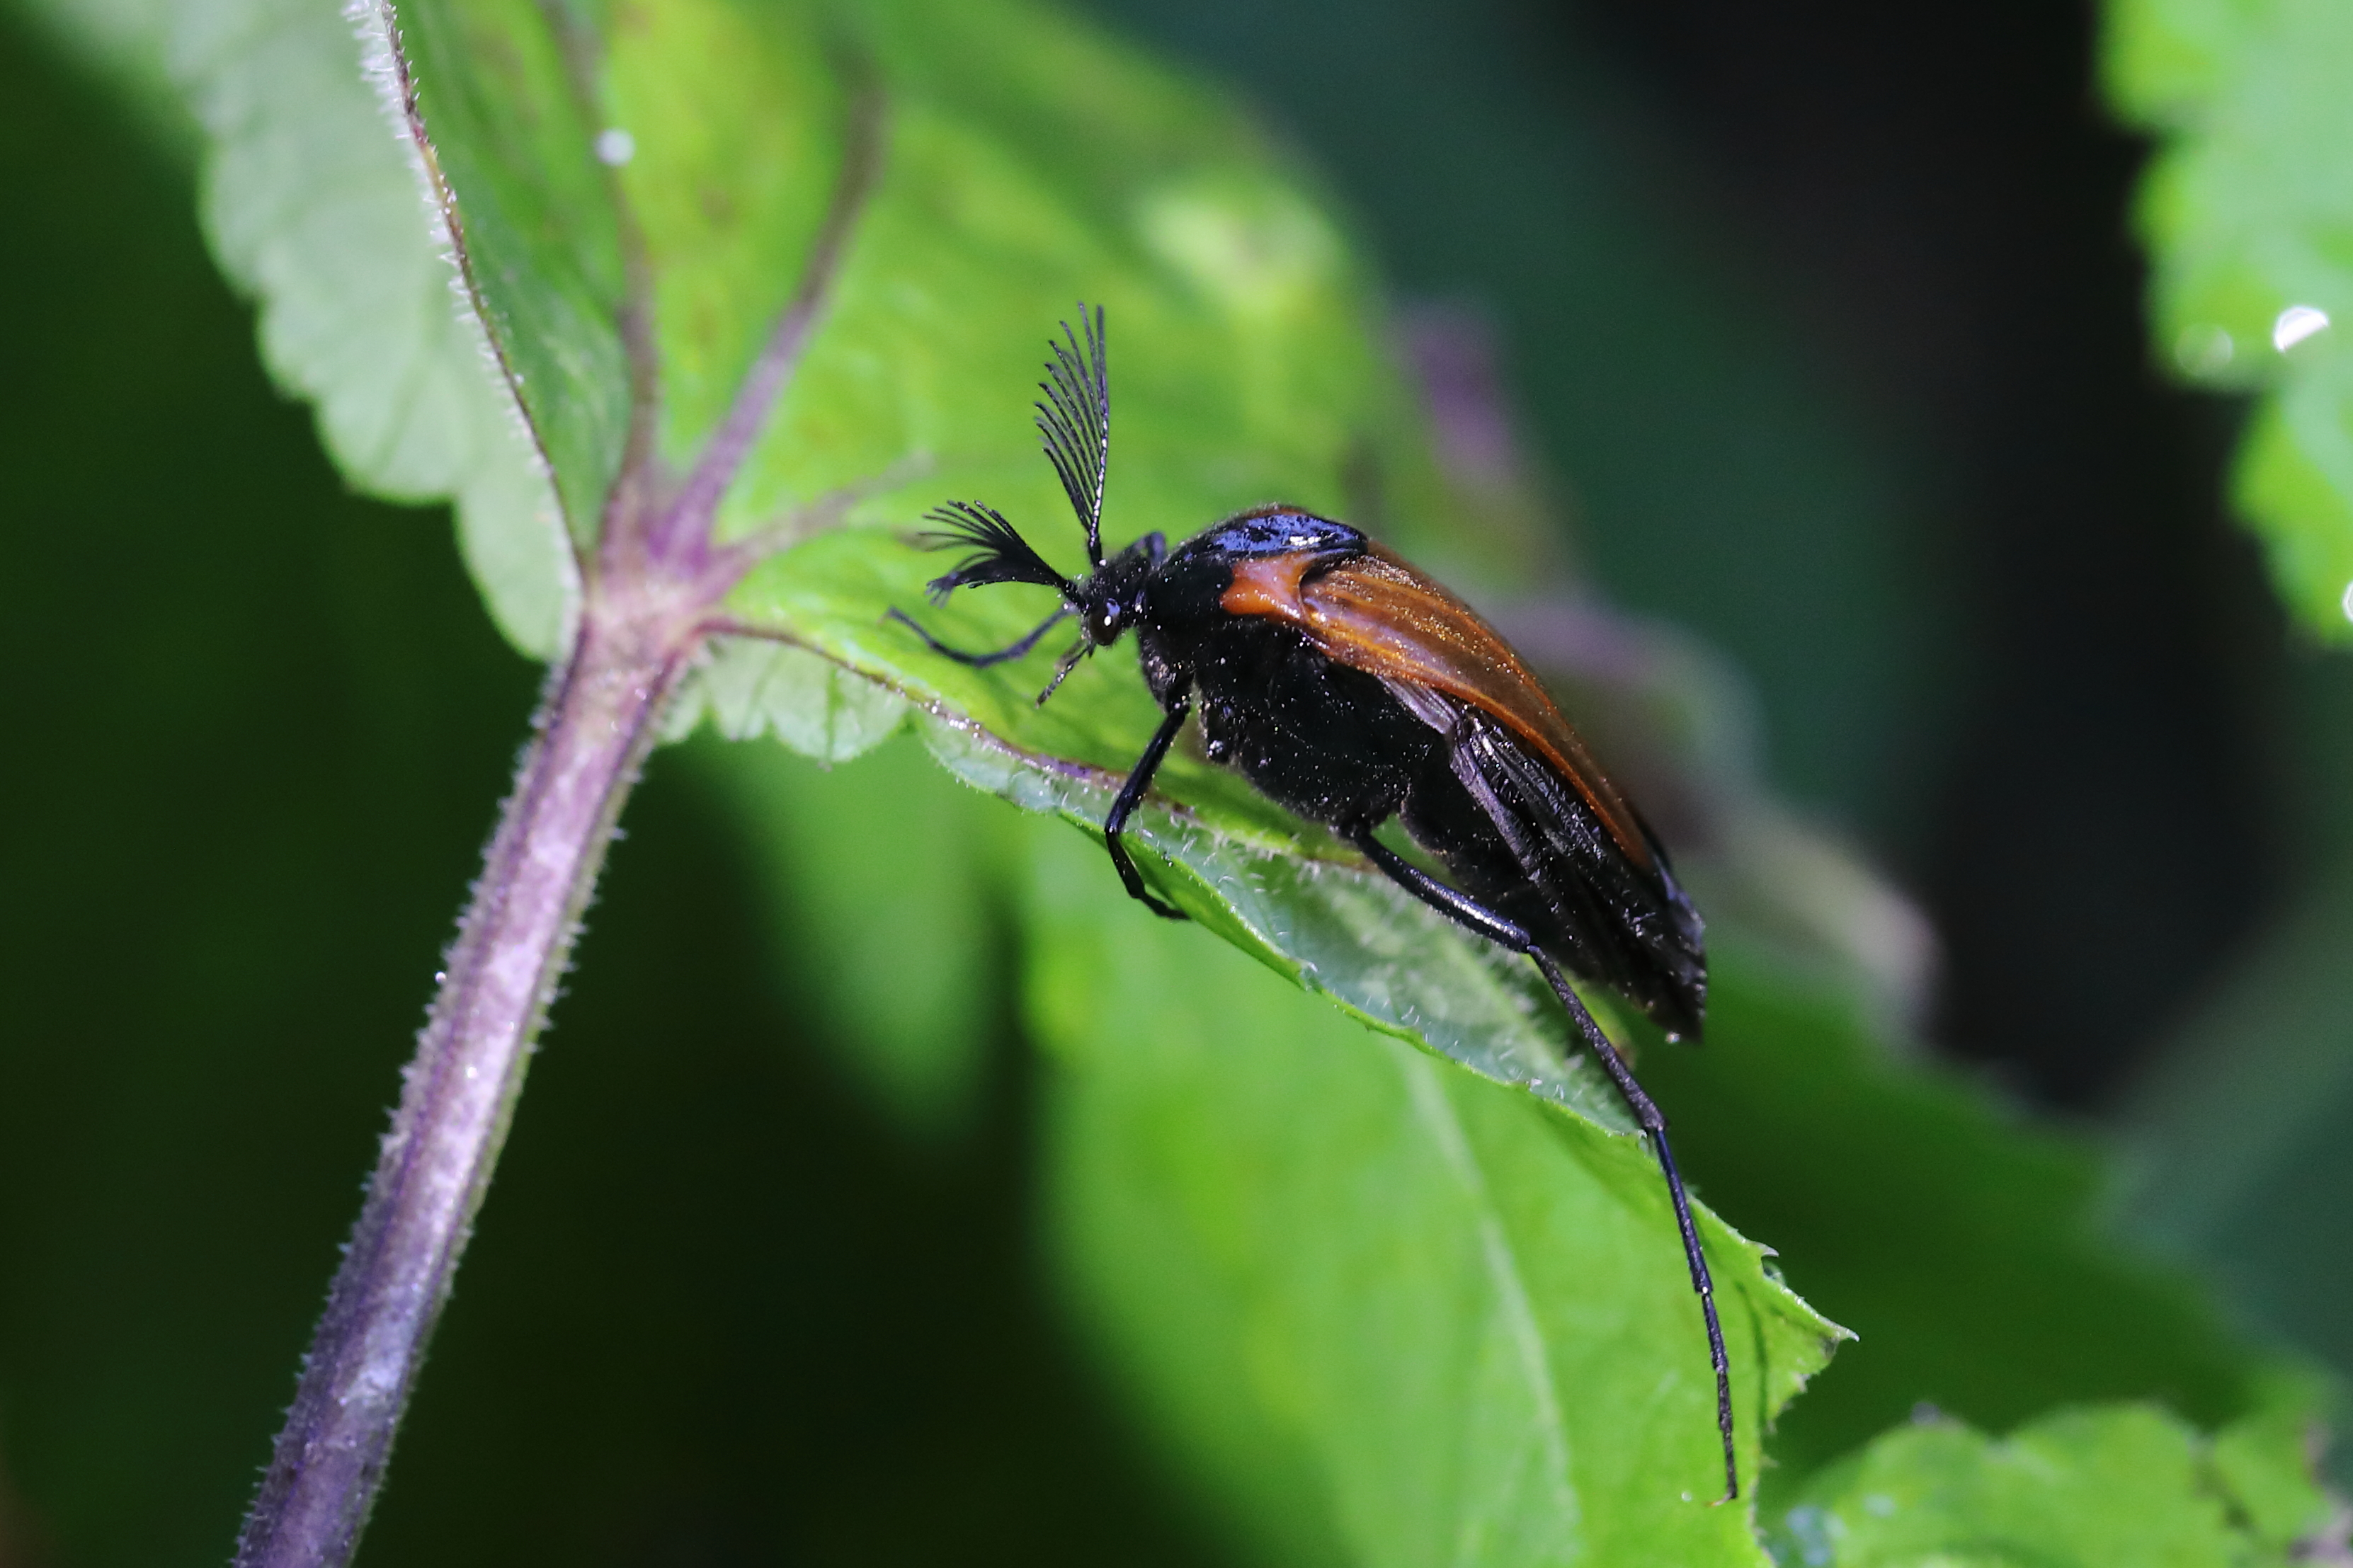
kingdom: Animalia
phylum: Arthropoda
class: Insecta
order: Coleoptera
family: Ripiphoridae
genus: Metoecus
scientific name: Metoecus paradoxus
